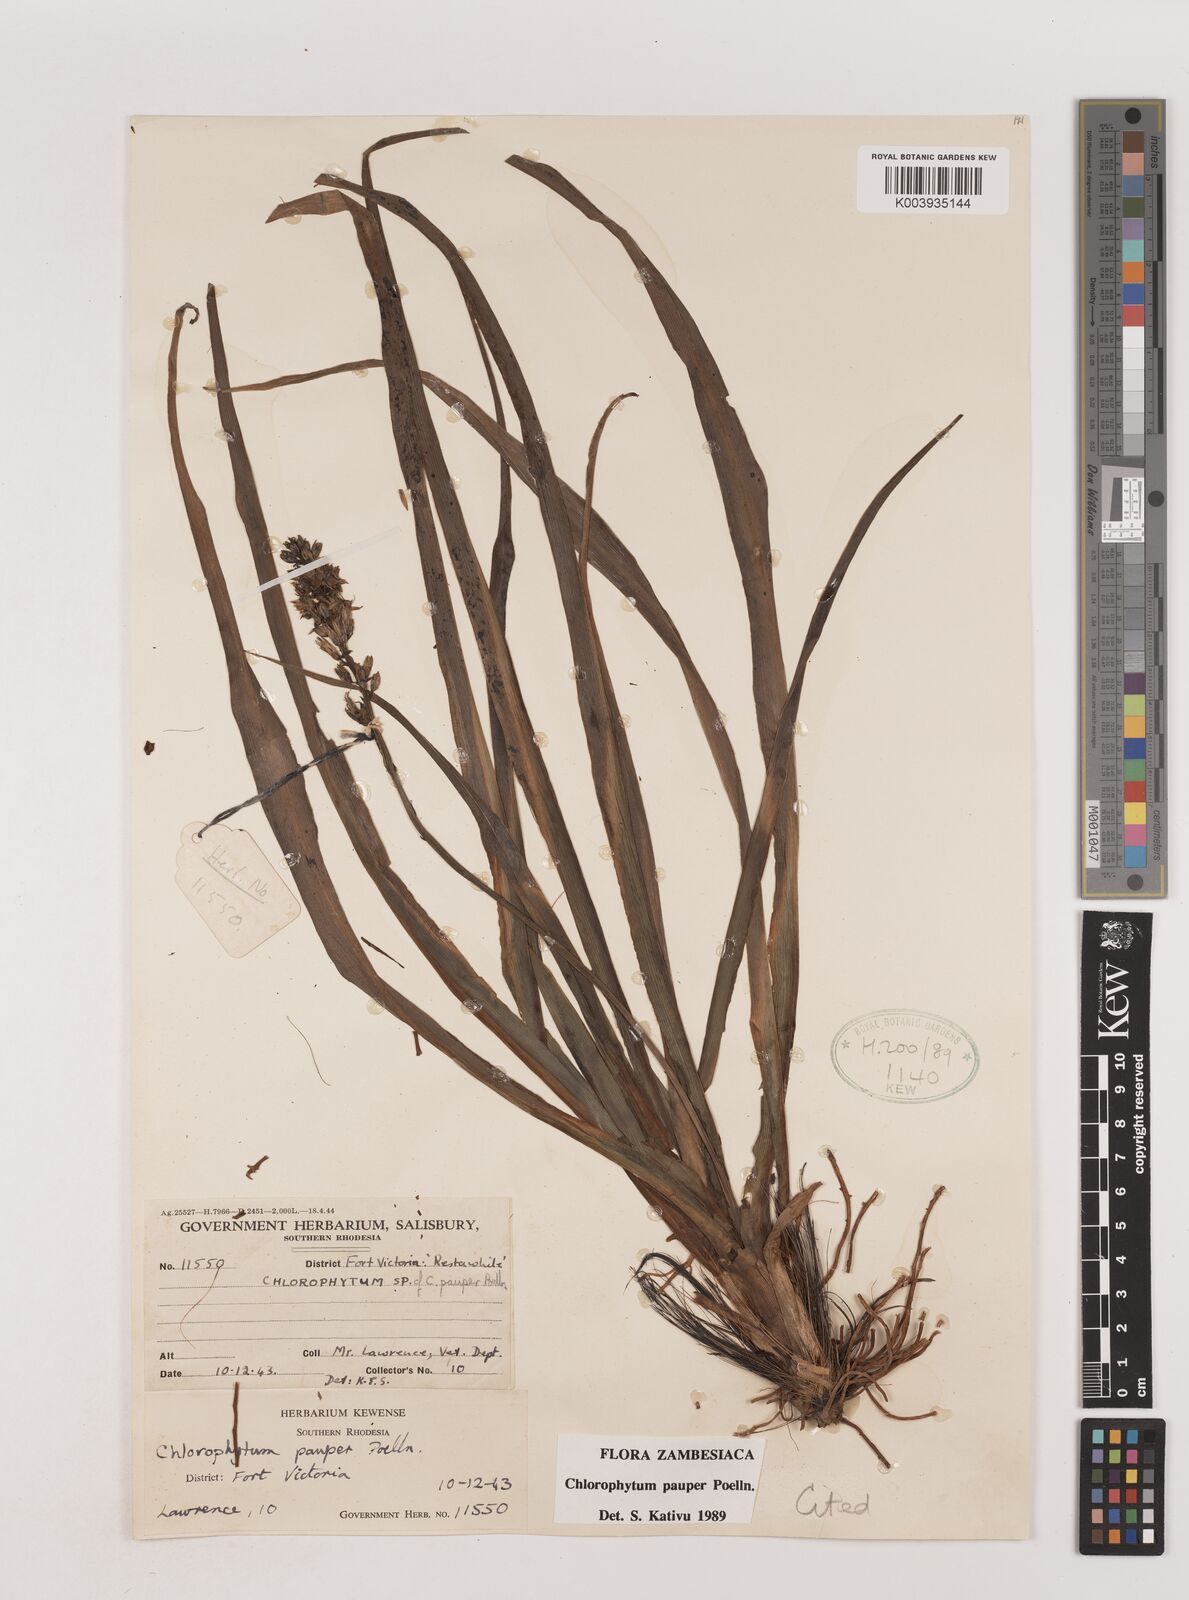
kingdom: Plantae
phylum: Tracheophyta
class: Liliopsida
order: Asparagales
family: Asparagaceae
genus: Chlorophytum
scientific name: Chlorophytum pauper
